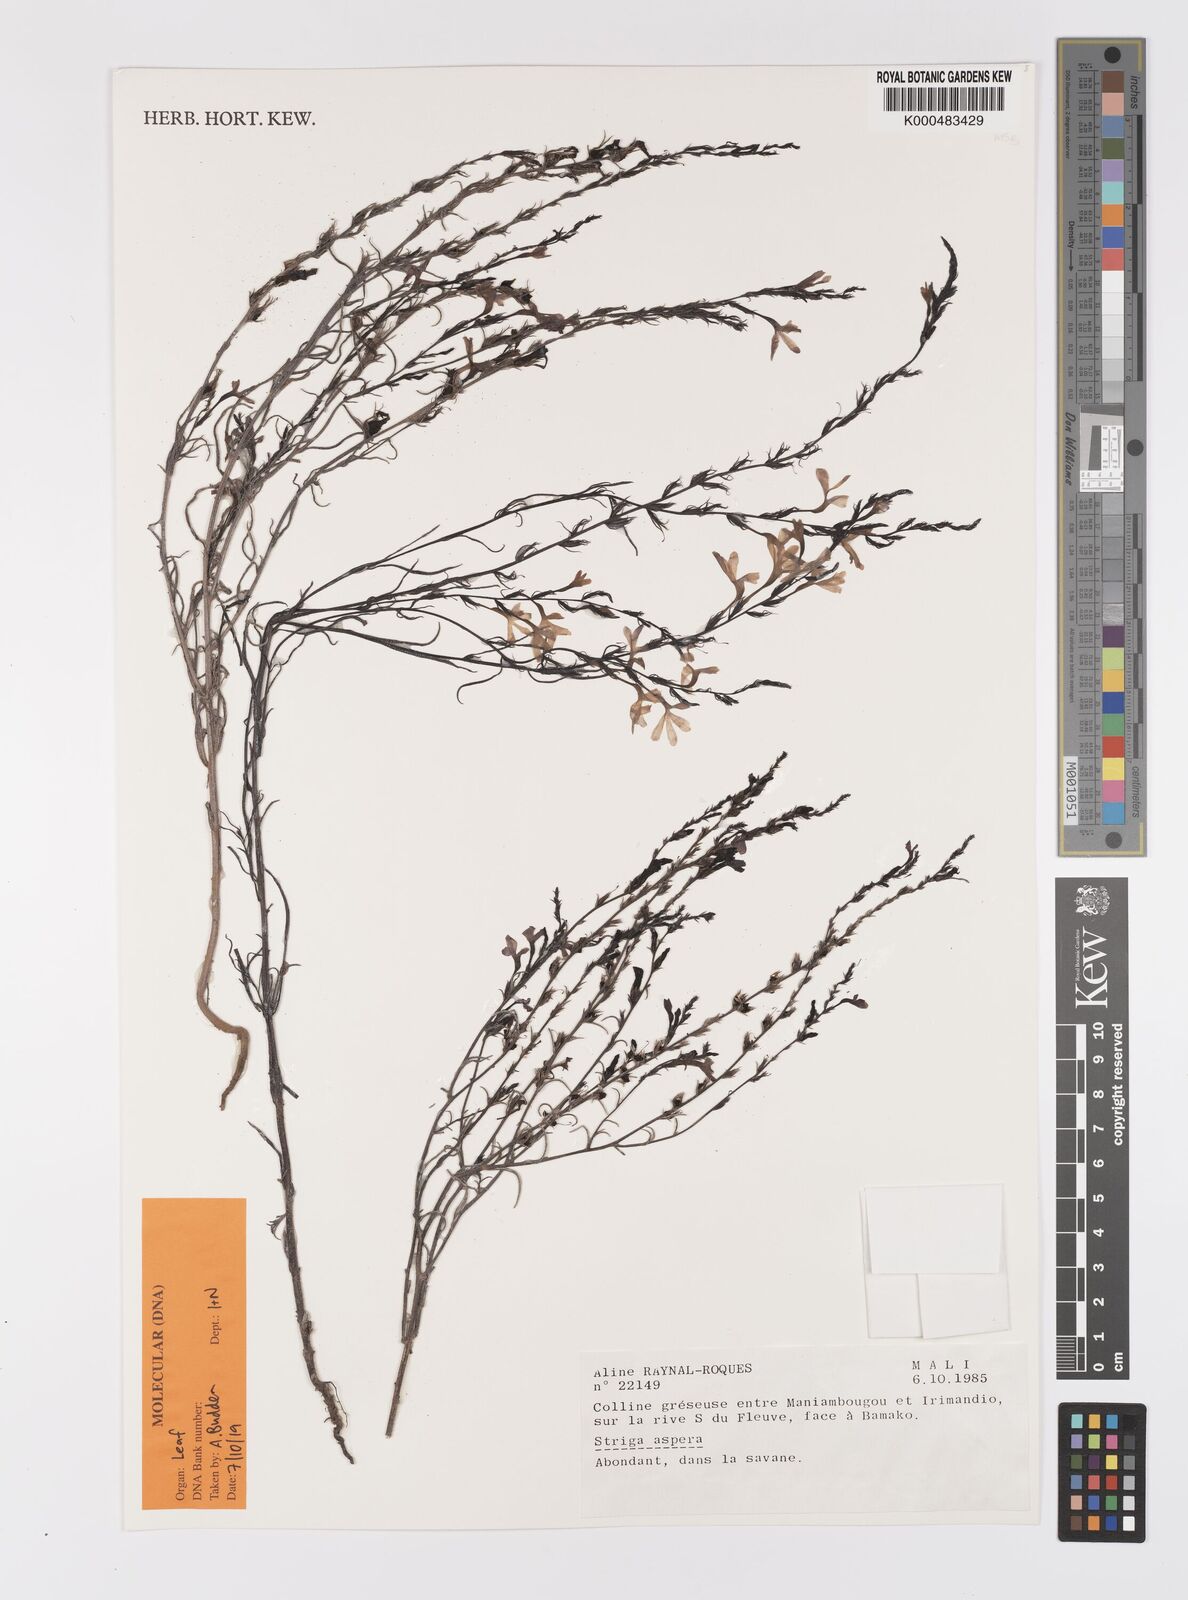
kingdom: Plantae
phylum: Tracheophyta
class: Magnoliopsida
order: Lamiales
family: Orobanchaceae
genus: Striga
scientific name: Striga aspera
